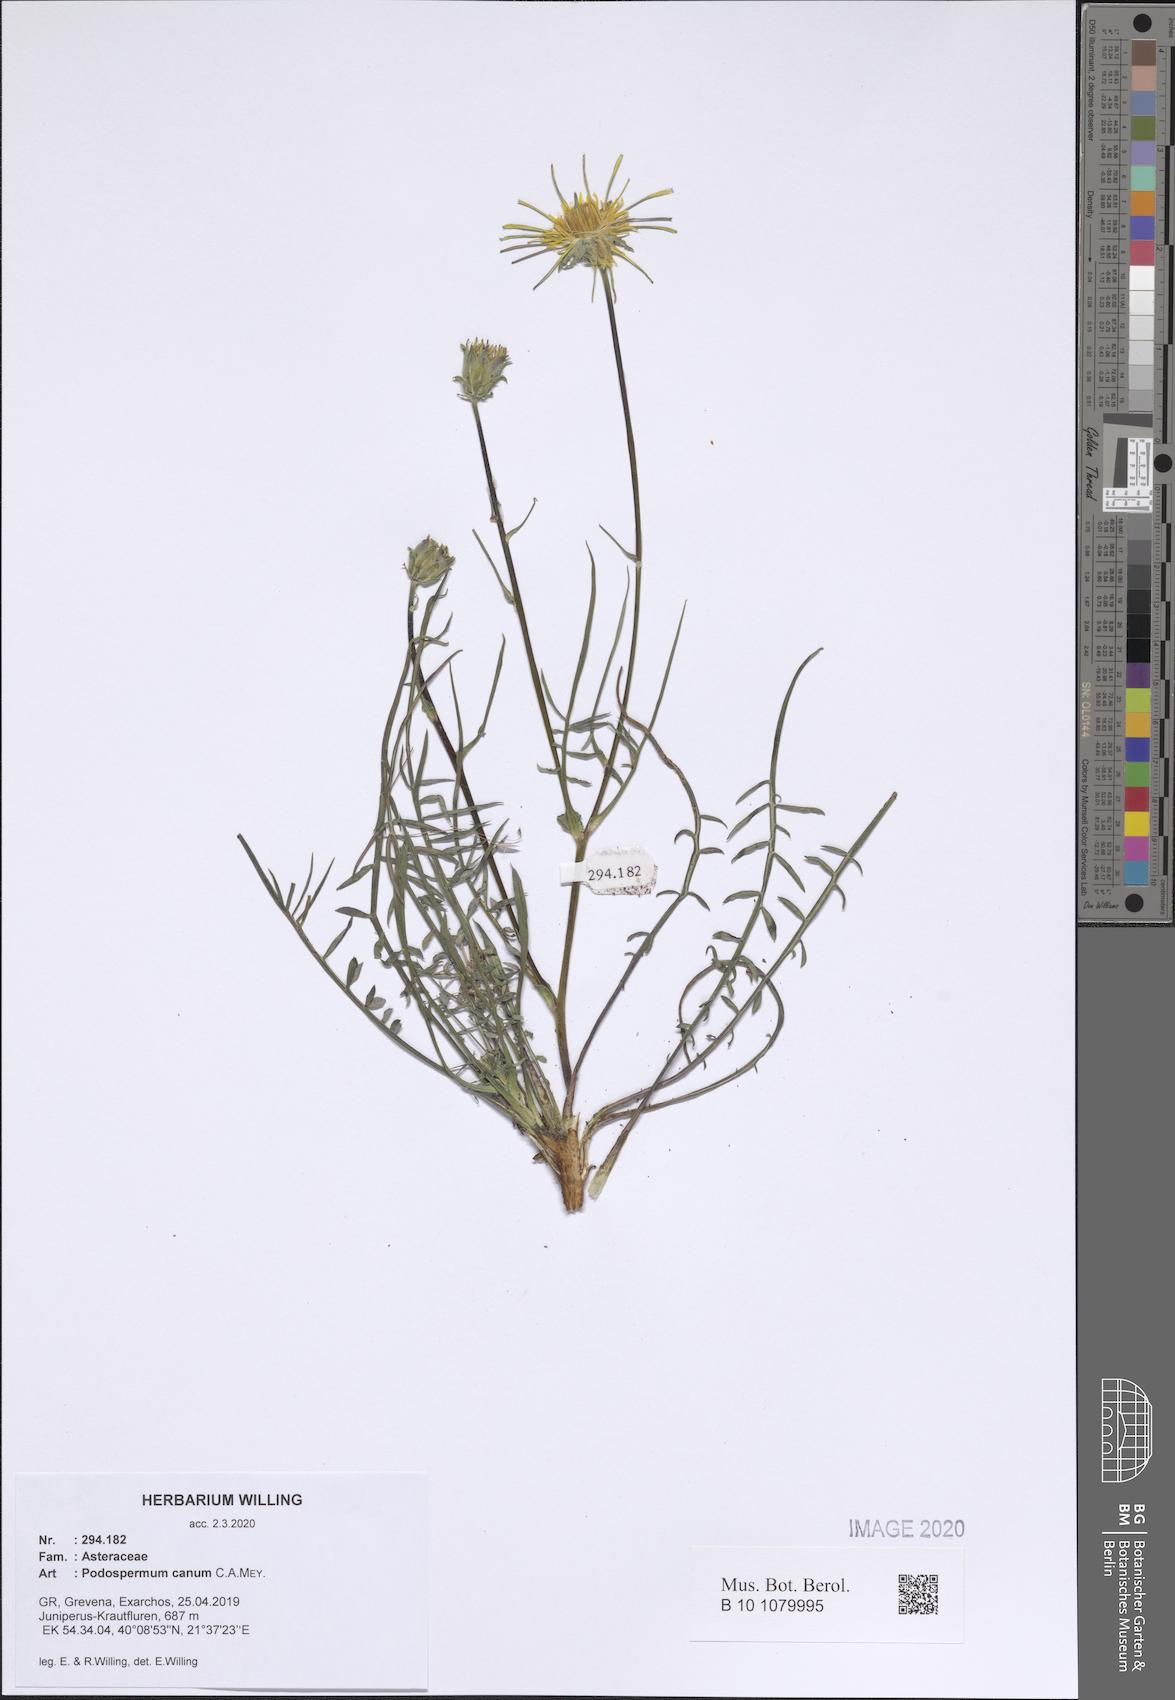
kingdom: Plantae
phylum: Tracheophyta
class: Magnoliopsida
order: Asterales
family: Asteraceae
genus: Scorzonera
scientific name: Scorzonera cana
